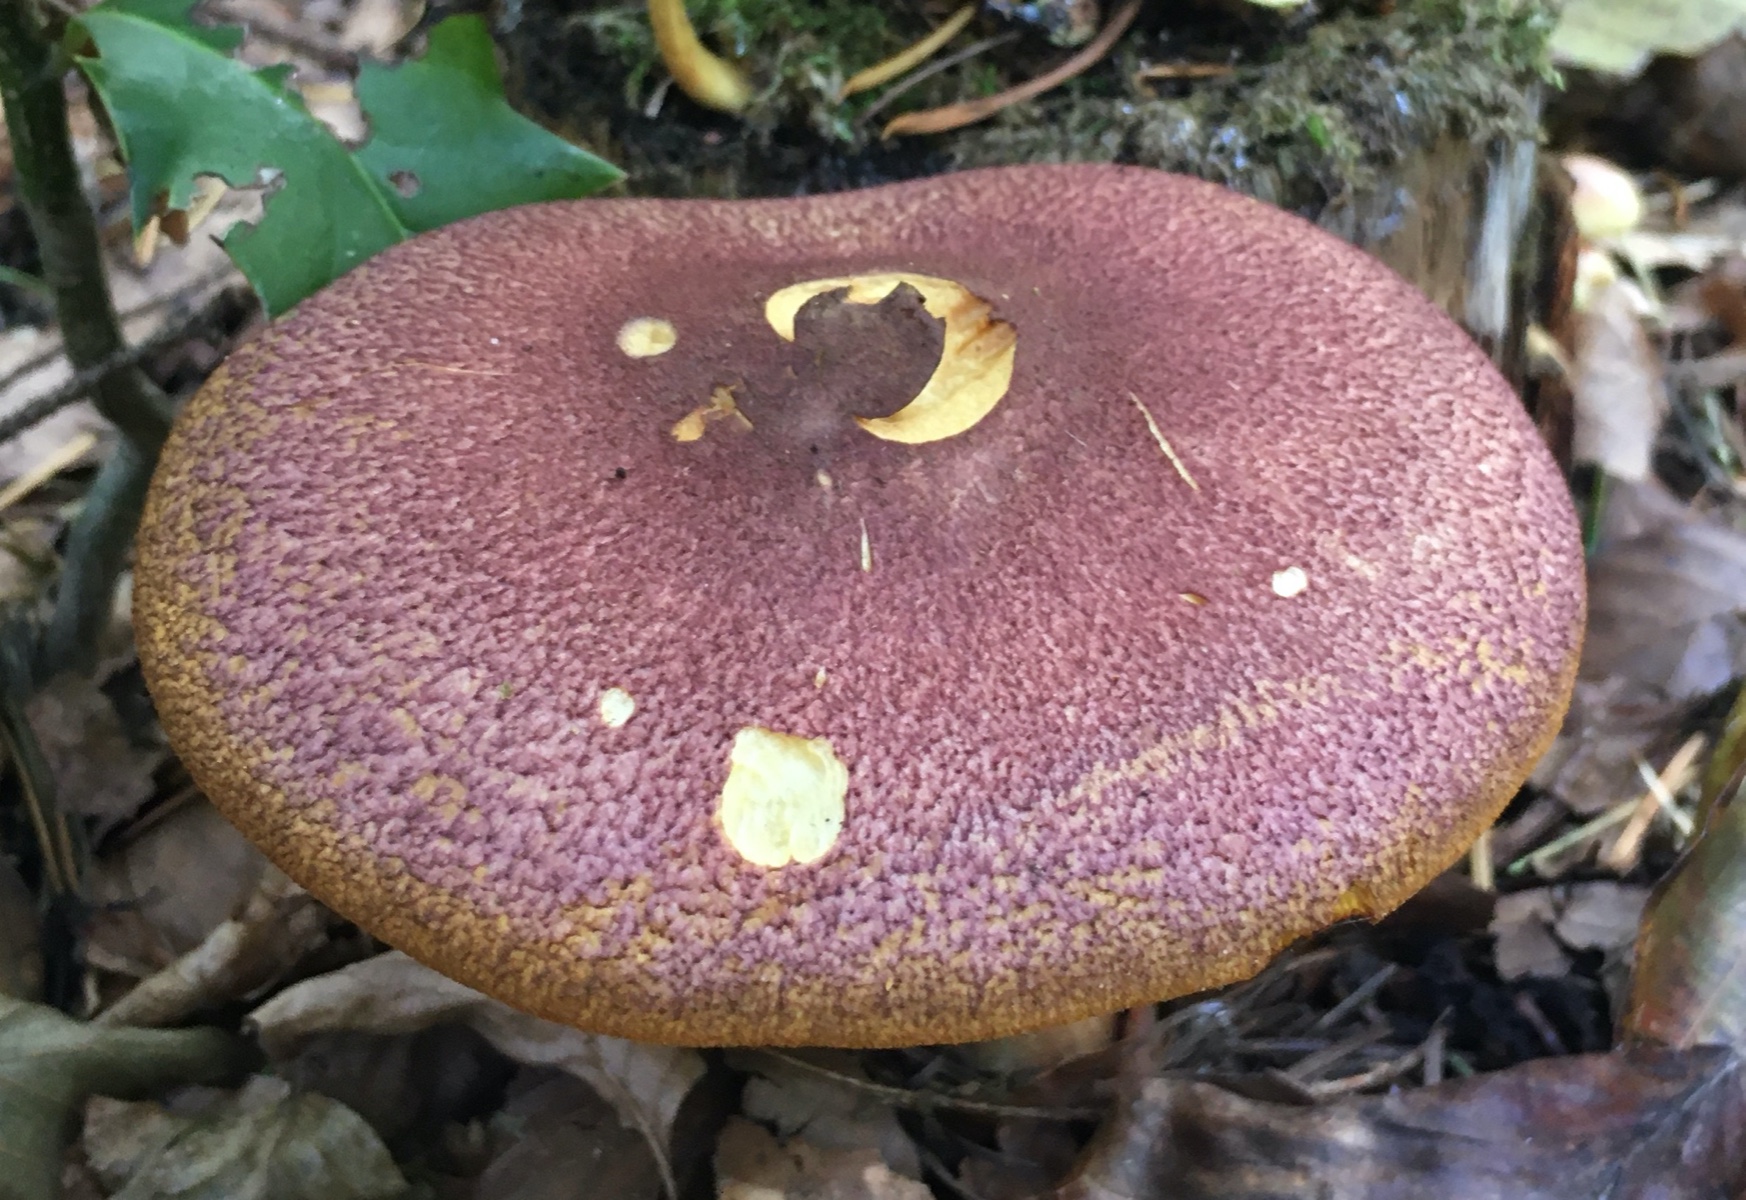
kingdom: Fungi
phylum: Basidiomycota
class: Agaricomycetes
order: Agaricales
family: Tricholomataceae
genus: Tricholomopsis
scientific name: Tricholomopsis rutilans
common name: purpur-væbnerhat
